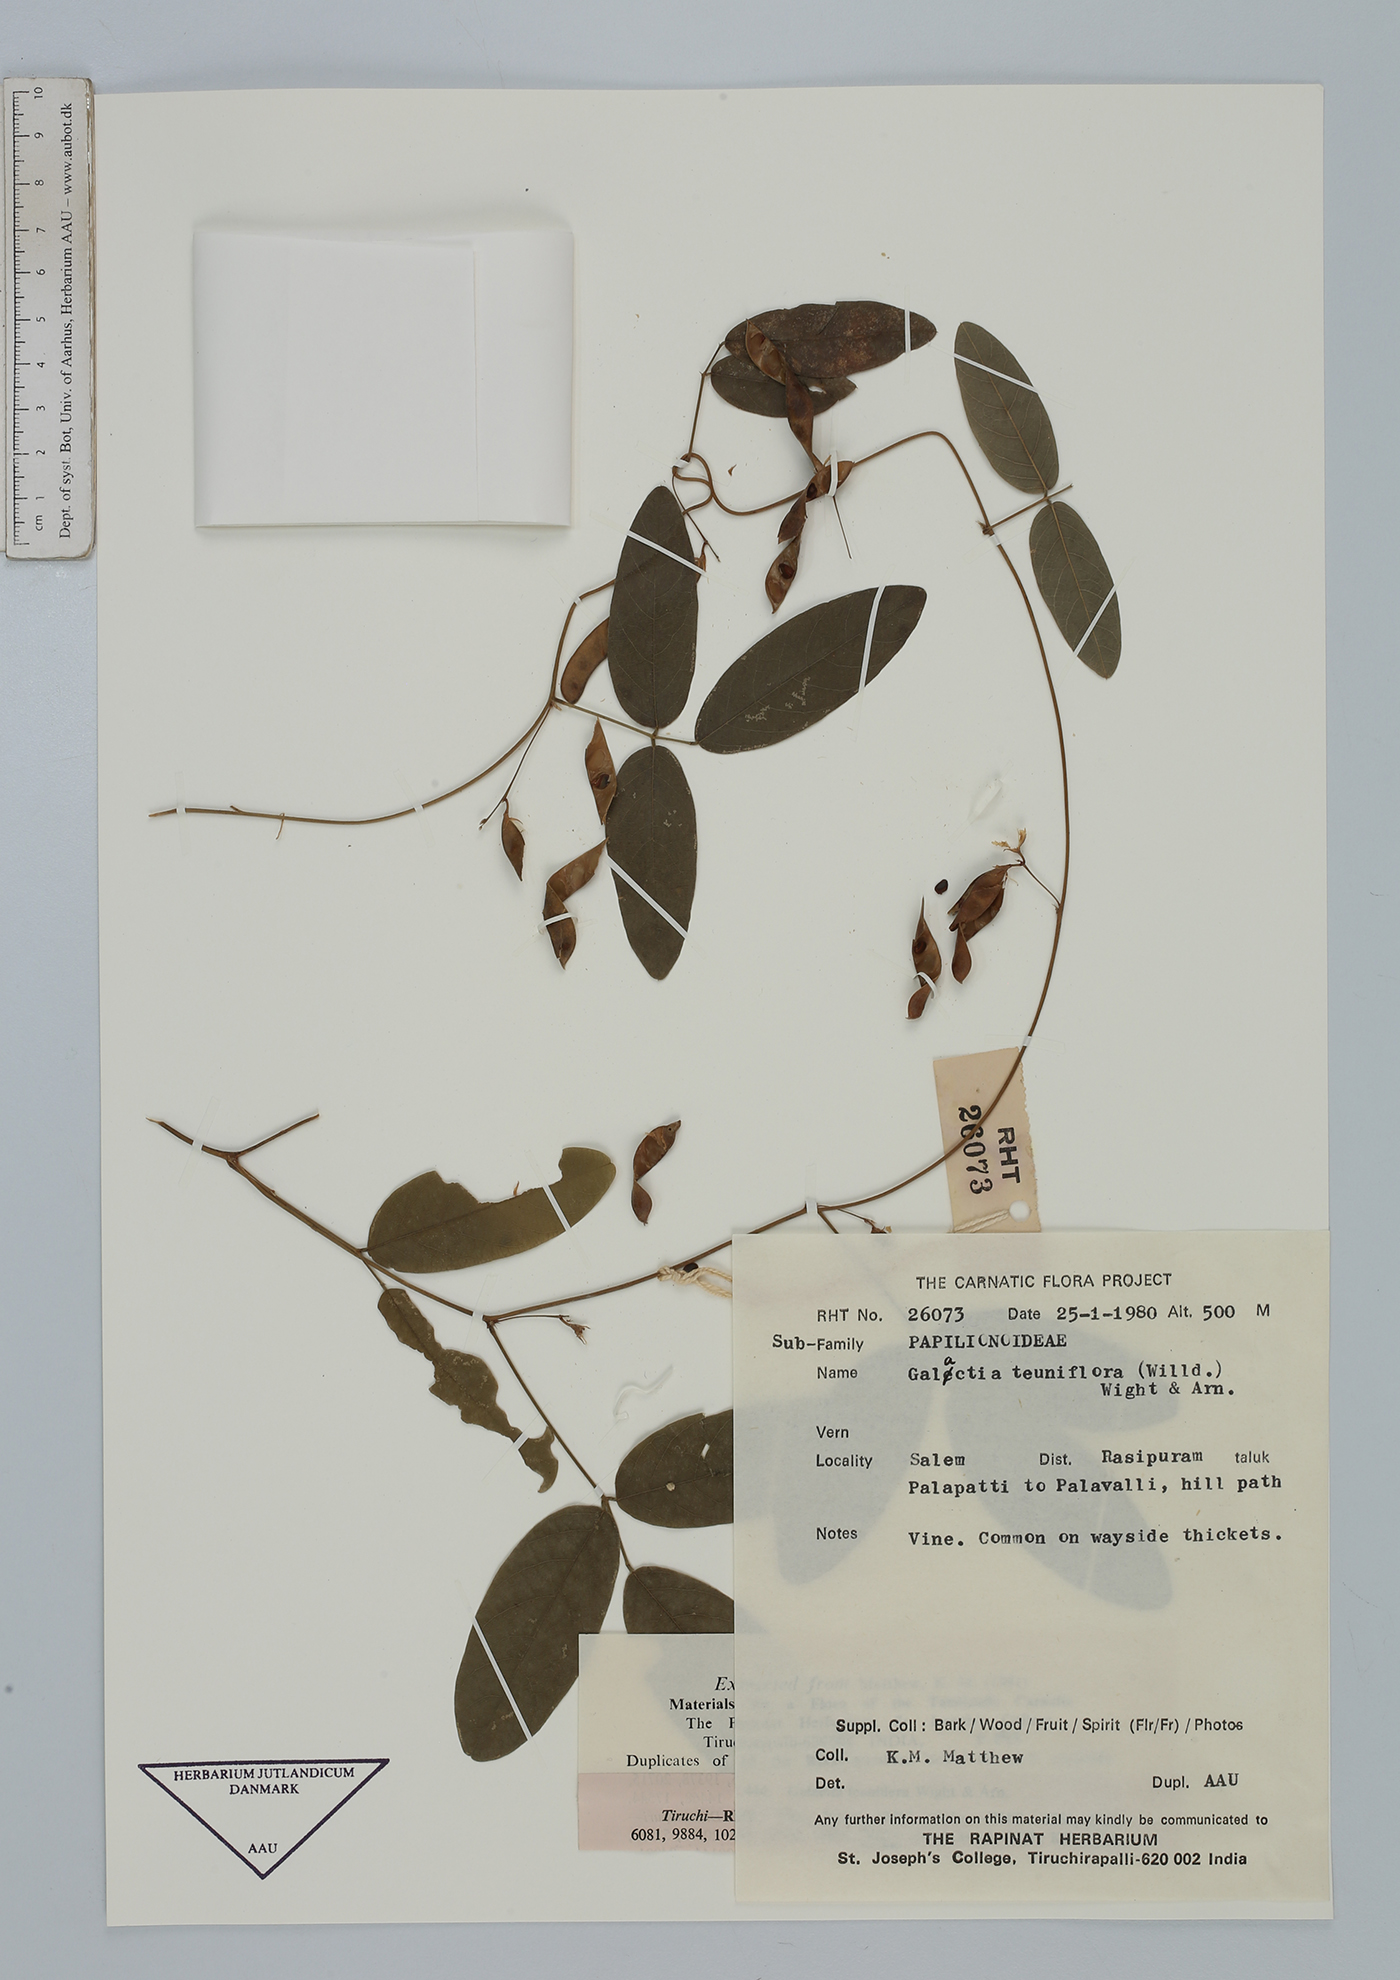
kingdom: Plantae
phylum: Tracheophyta
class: Magnoliopsida
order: Fabales
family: Fabaceae
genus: Galactia
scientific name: Galactia striata
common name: Florida hammock milkpea
